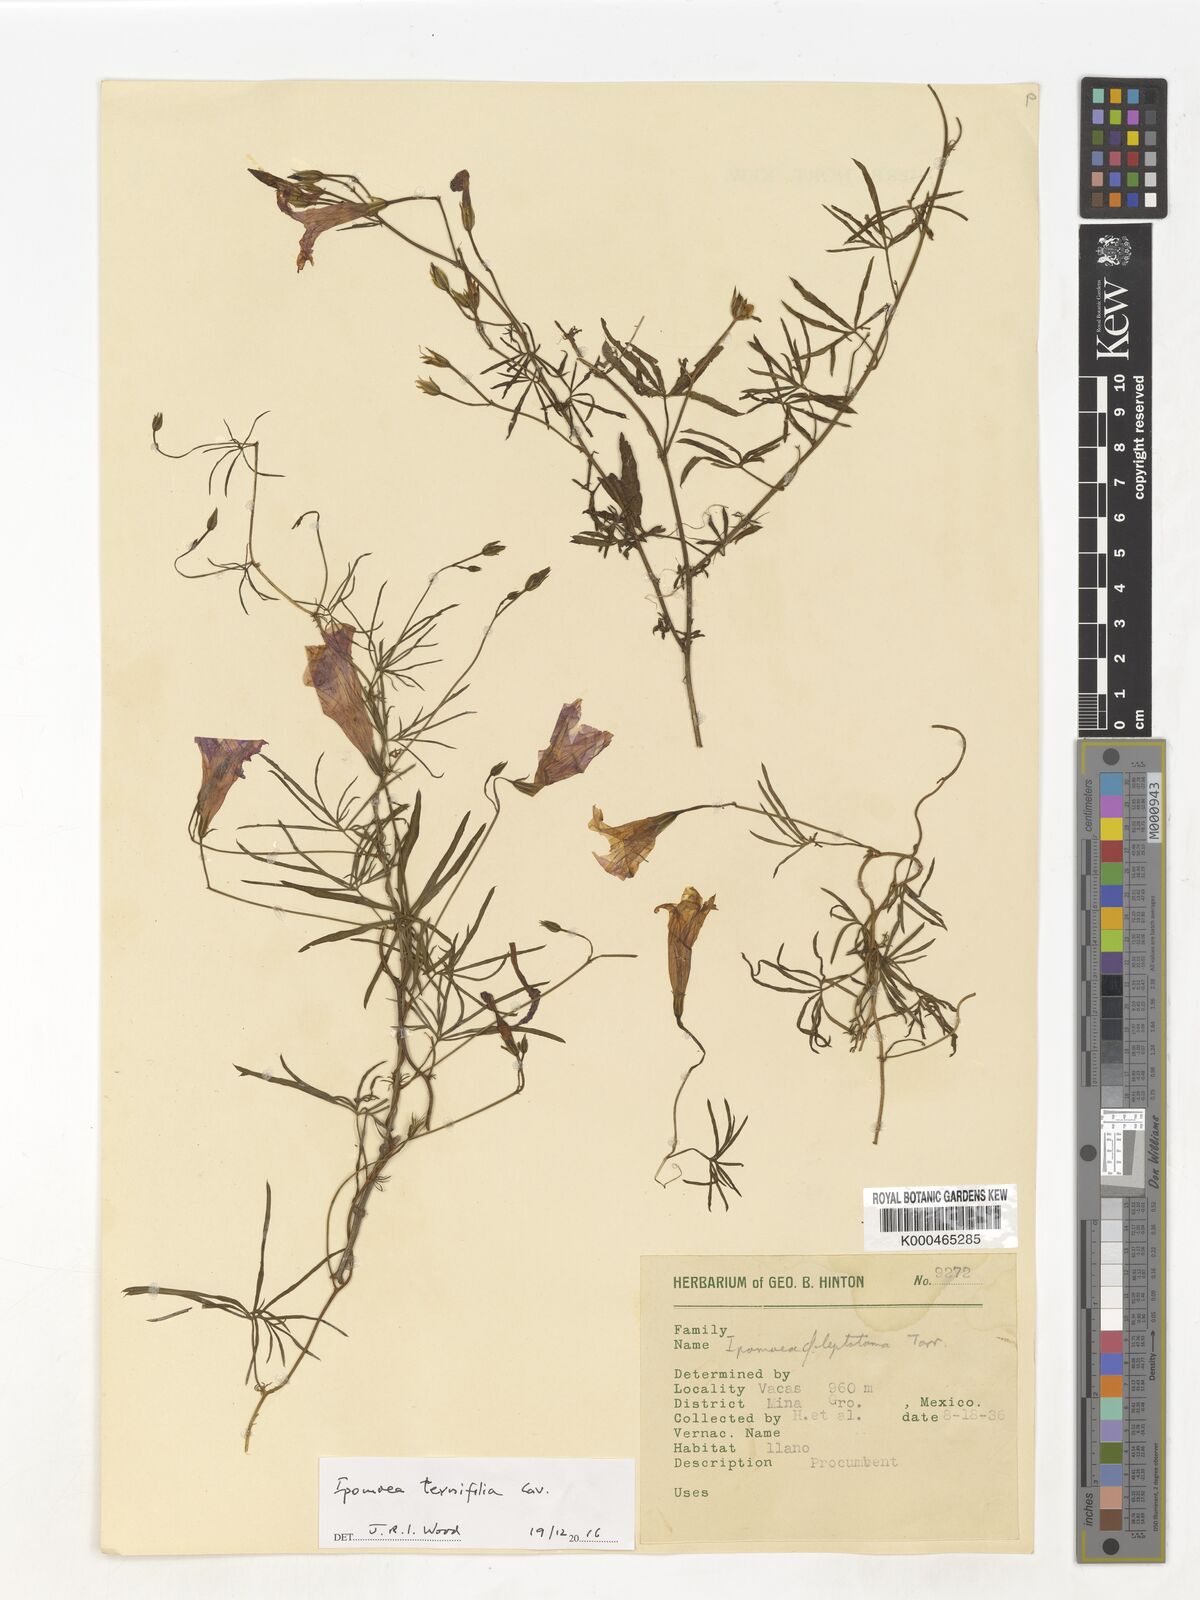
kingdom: Plantae
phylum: Tracheophyta
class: Magnoliopsida
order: Solanales
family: Convolvulaceae
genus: Ipomoea
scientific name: Ipomoea ternifolia
